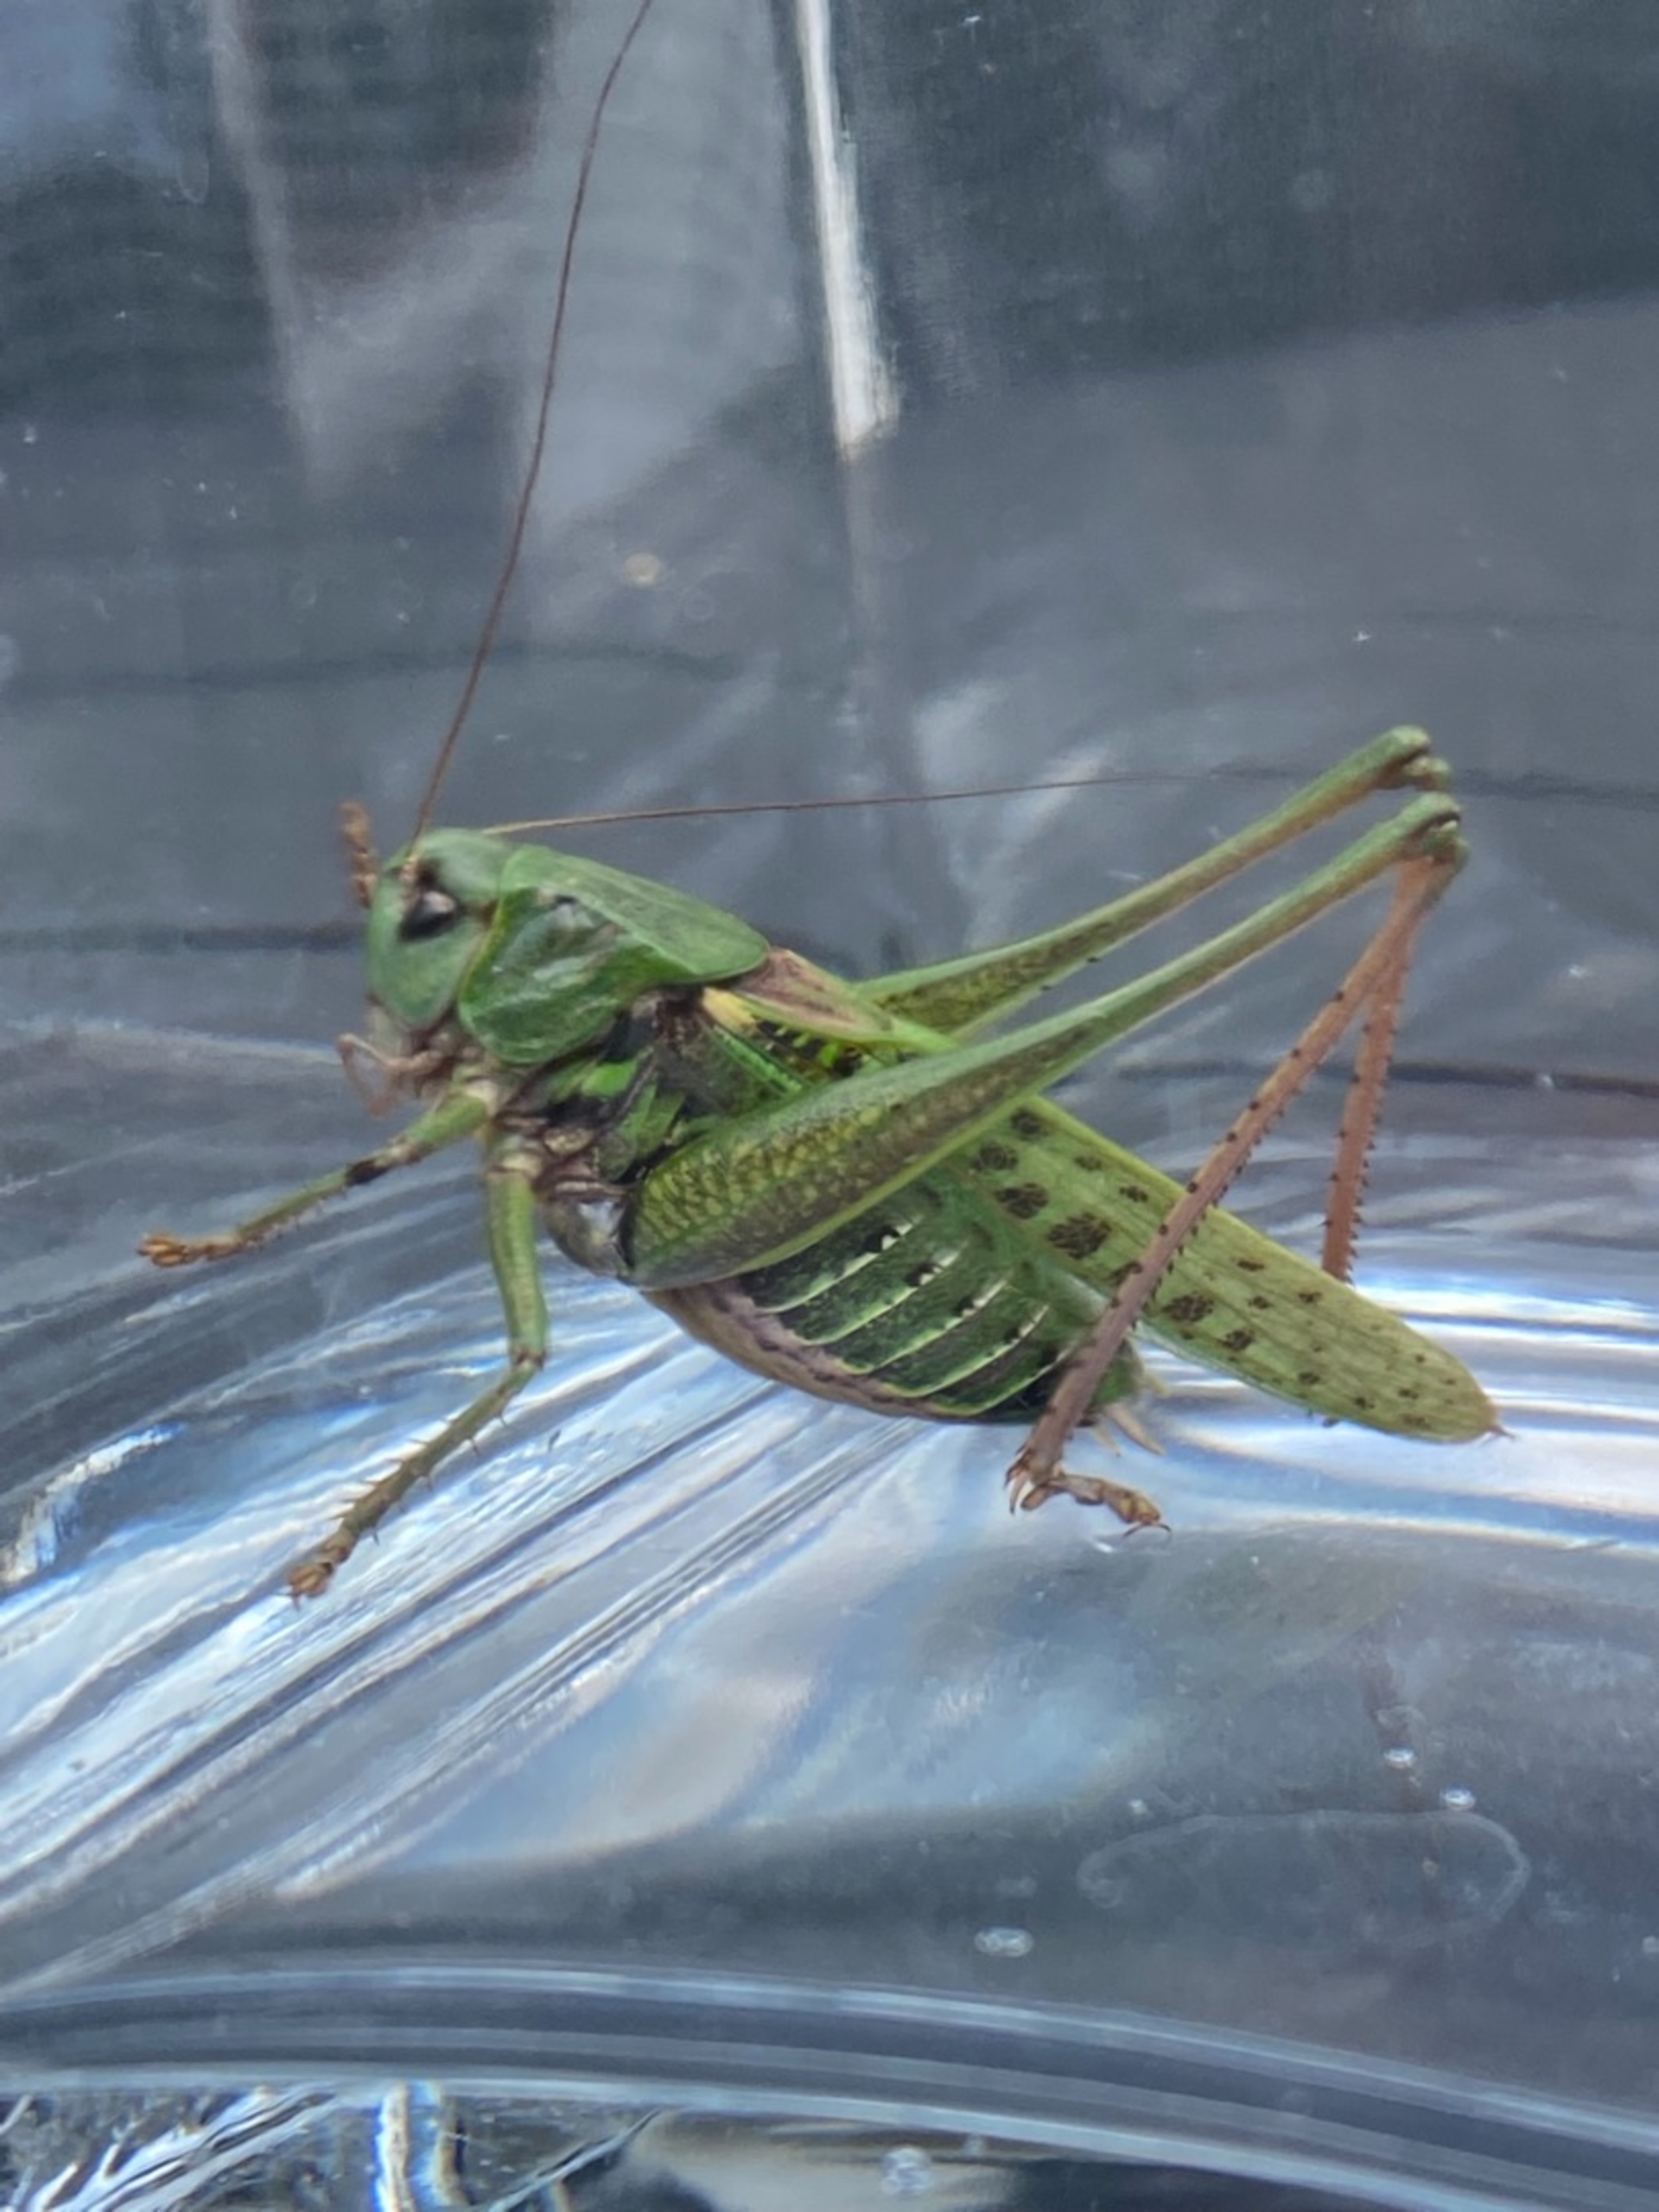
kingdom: Animalia
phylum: Arthropoda
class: Insecta
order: Orthoptera
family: Tettigoniidae
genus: Decticus
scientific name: Decticus verrucivorus
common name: Vortebider
